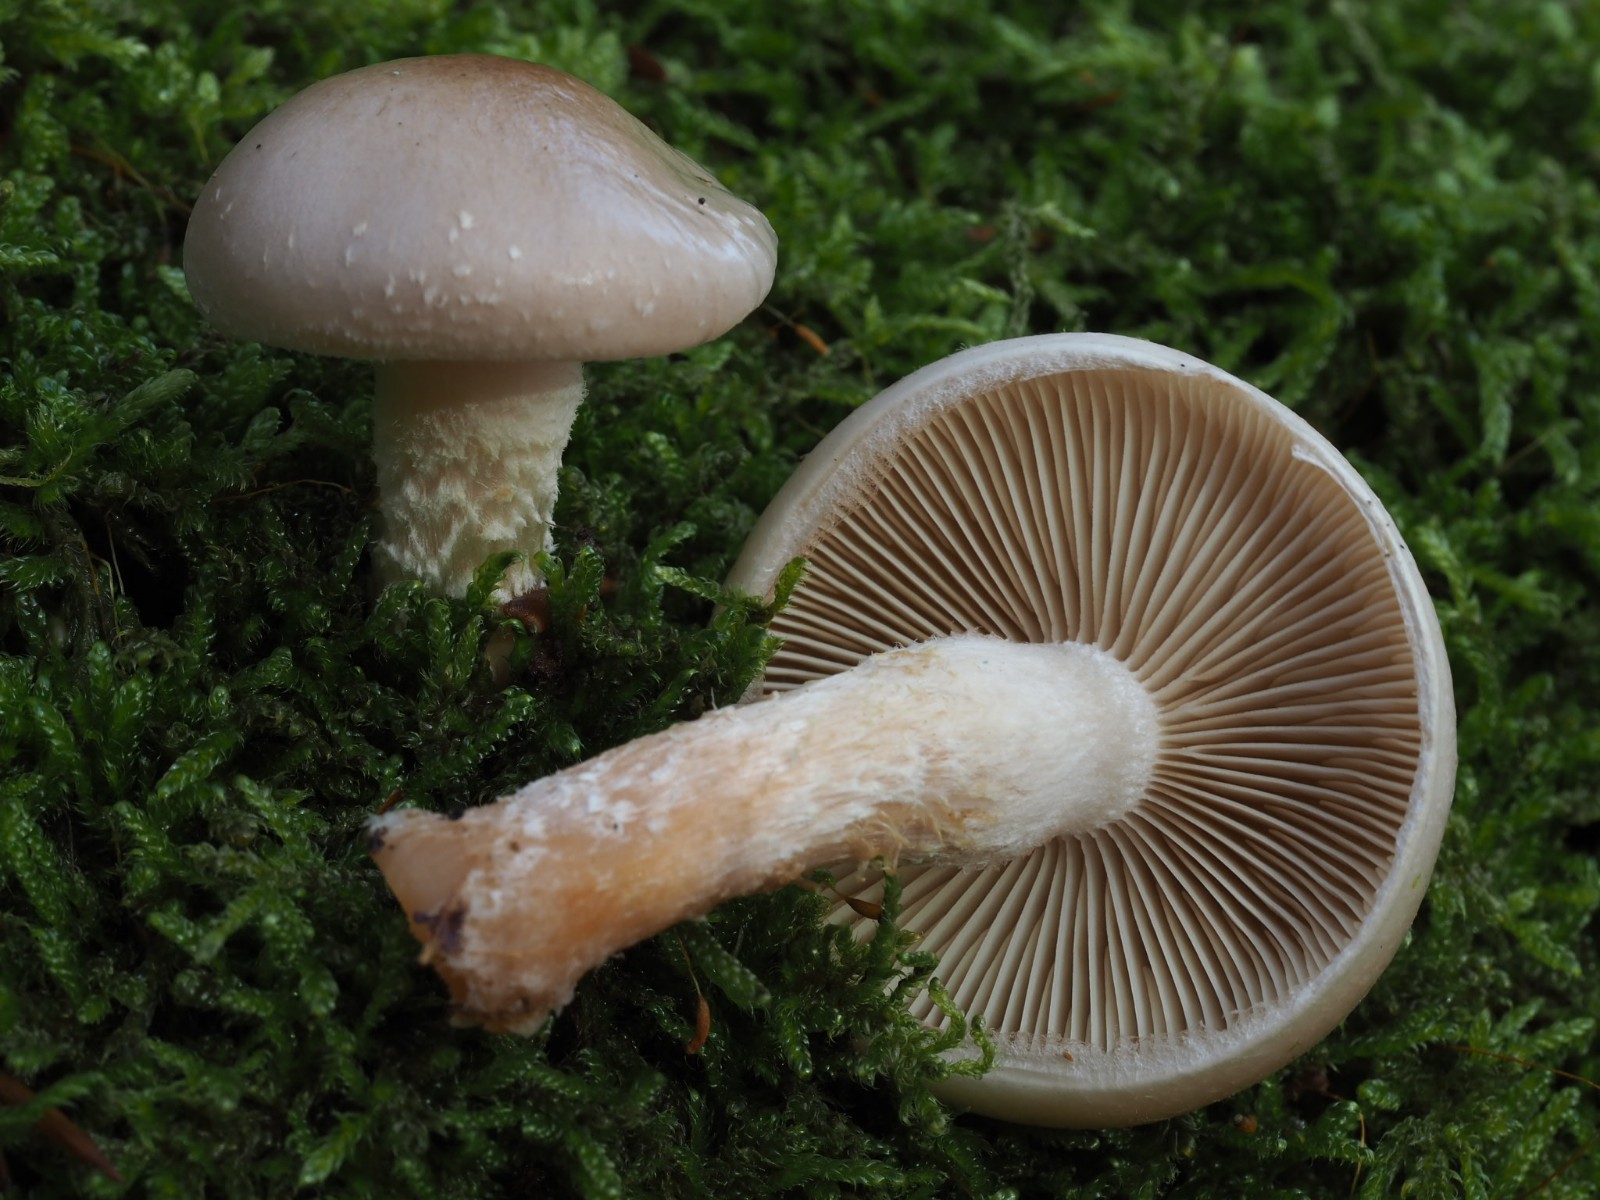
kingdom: Fungi
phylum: Basidiomycota
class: Agaricomycetes
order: Agaricales
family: Strophariaceae
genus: Pholiota
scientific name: Pholiota lenta
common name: løv-skælhat
